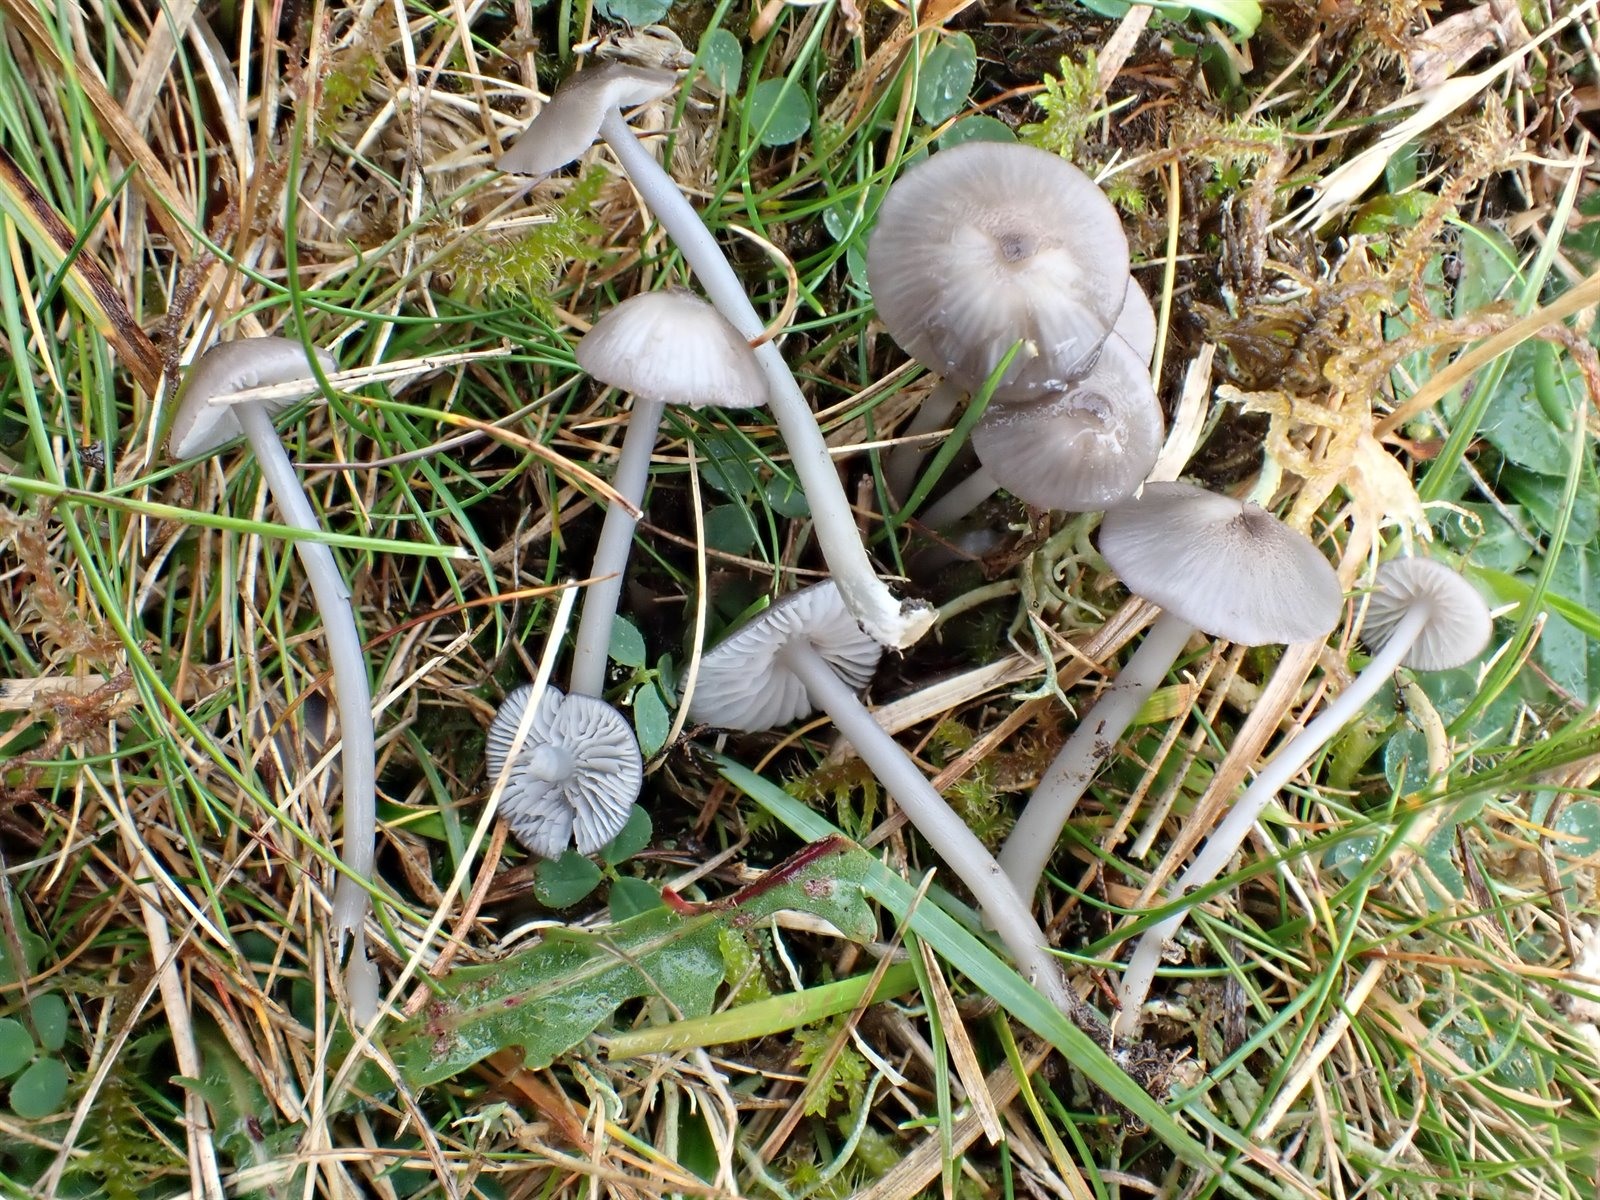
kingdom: Fungi
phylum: Basidiomycota
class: Agaricomycetes
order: Agaricales
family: Entolomataceae
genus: Entoloma
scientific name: Entoloma exile
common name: Glaucous pinkgill
